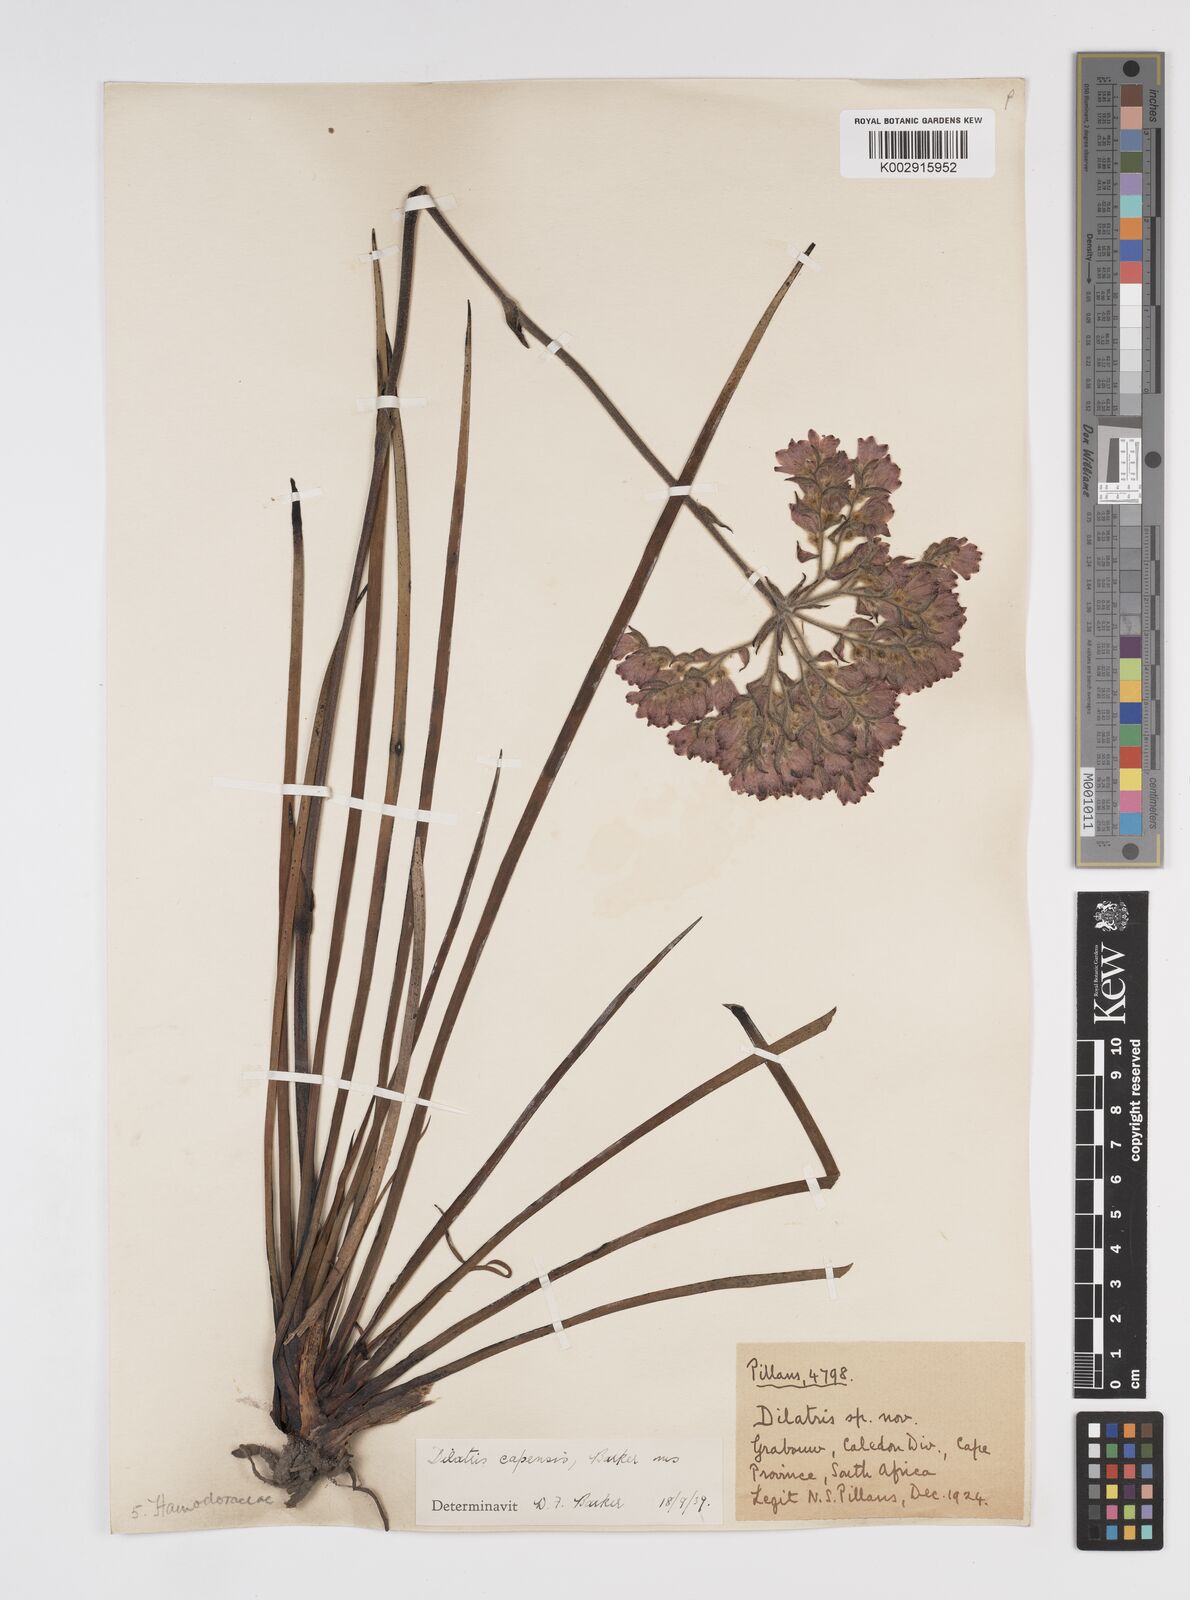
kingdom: Plantae
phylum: Tracheophyta
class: Liliopsida
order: Commelinales
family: Haemodoraceae
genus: Dilatris
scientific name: Dilatris pillansii
